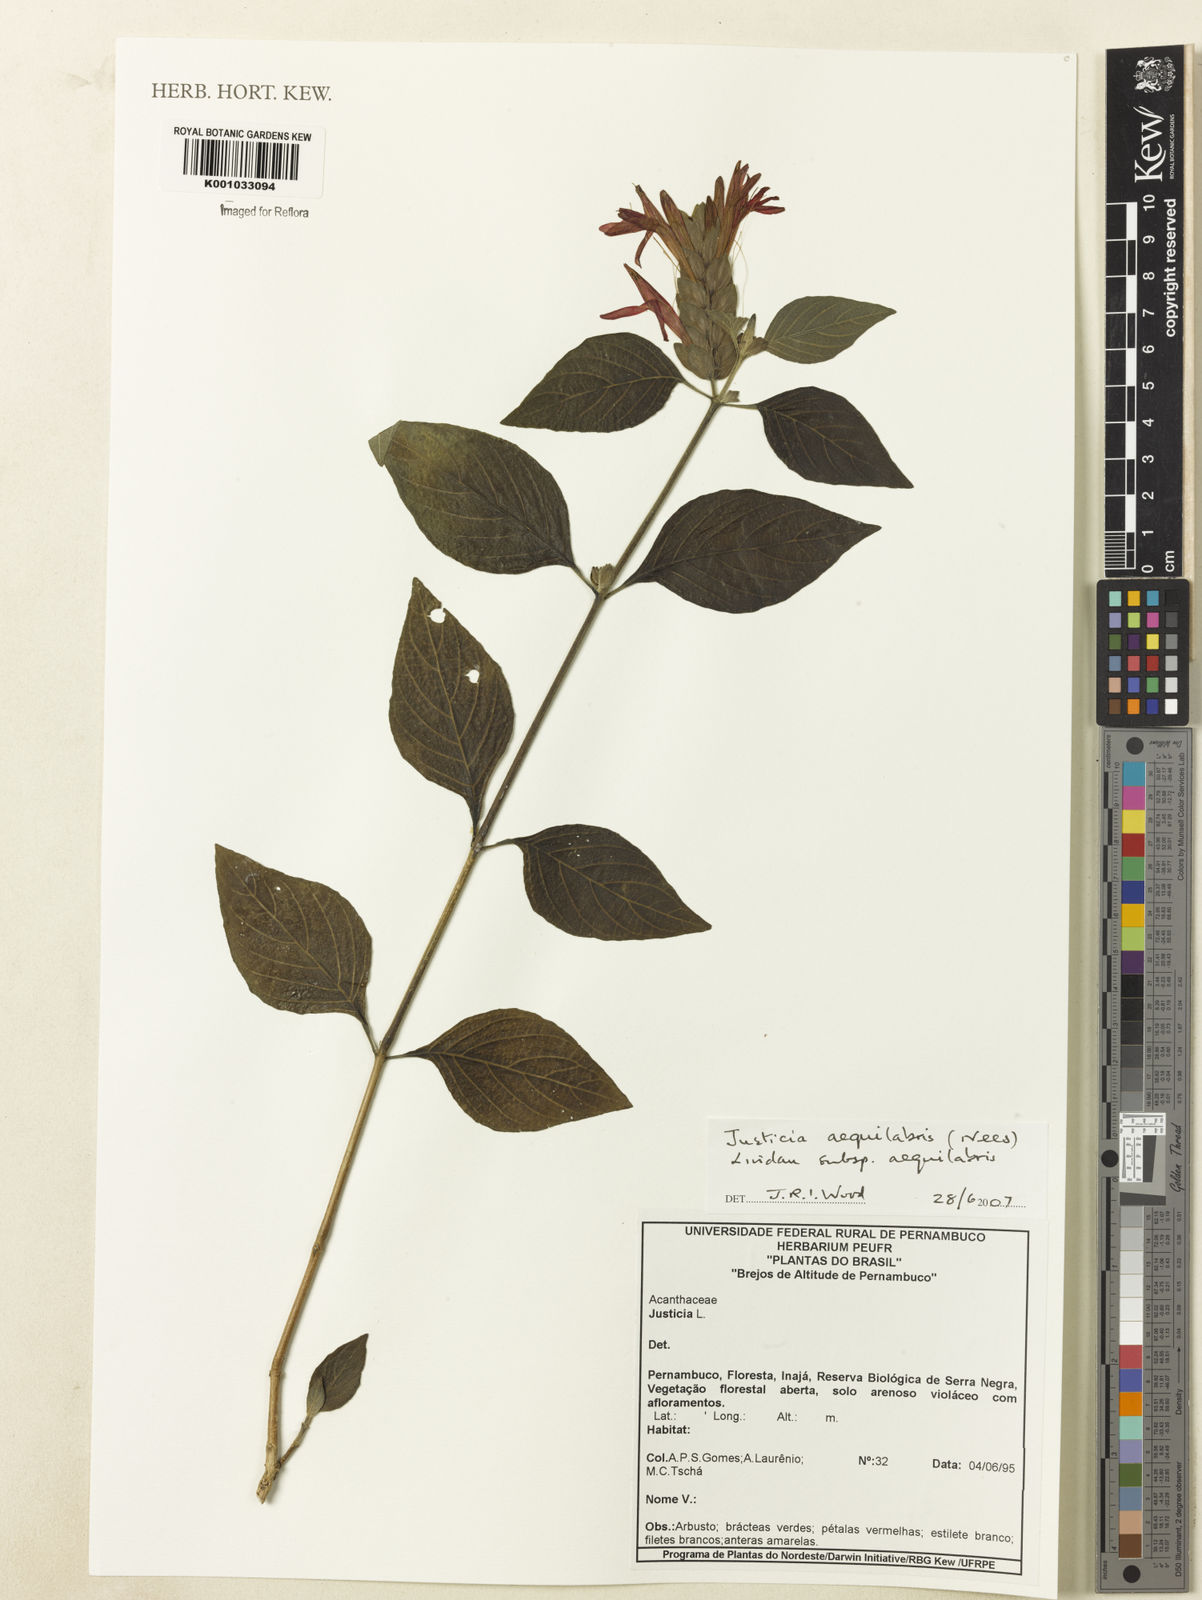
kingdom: Plantae
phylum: Tracheophyta
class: Magnoliopsida
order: Lamiales
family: Acanthaceae
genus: Justicia
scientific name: Justicia aequalis
